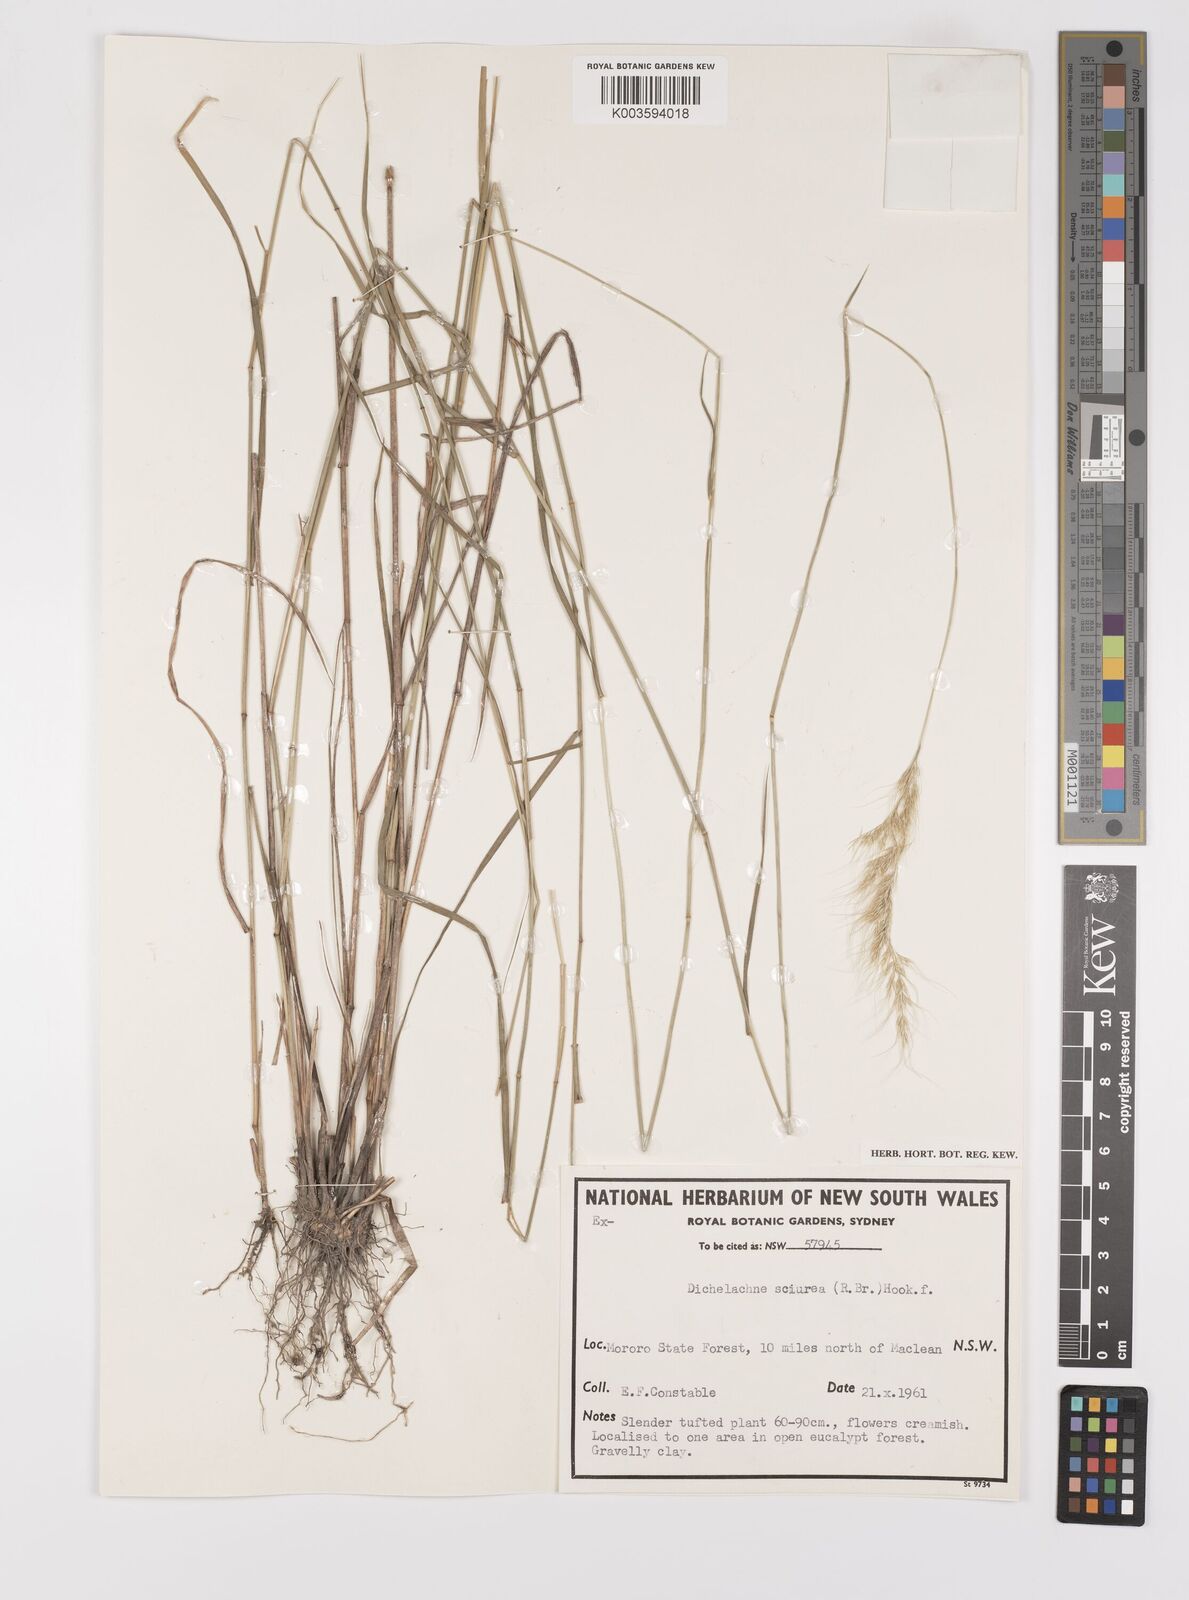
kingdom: Plantae
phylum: Tracheophyta
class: Liliopsida
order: Poales
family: Poaceae
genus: Dichelachne
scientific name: Dichelachne micrantha
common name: Plumegrass
